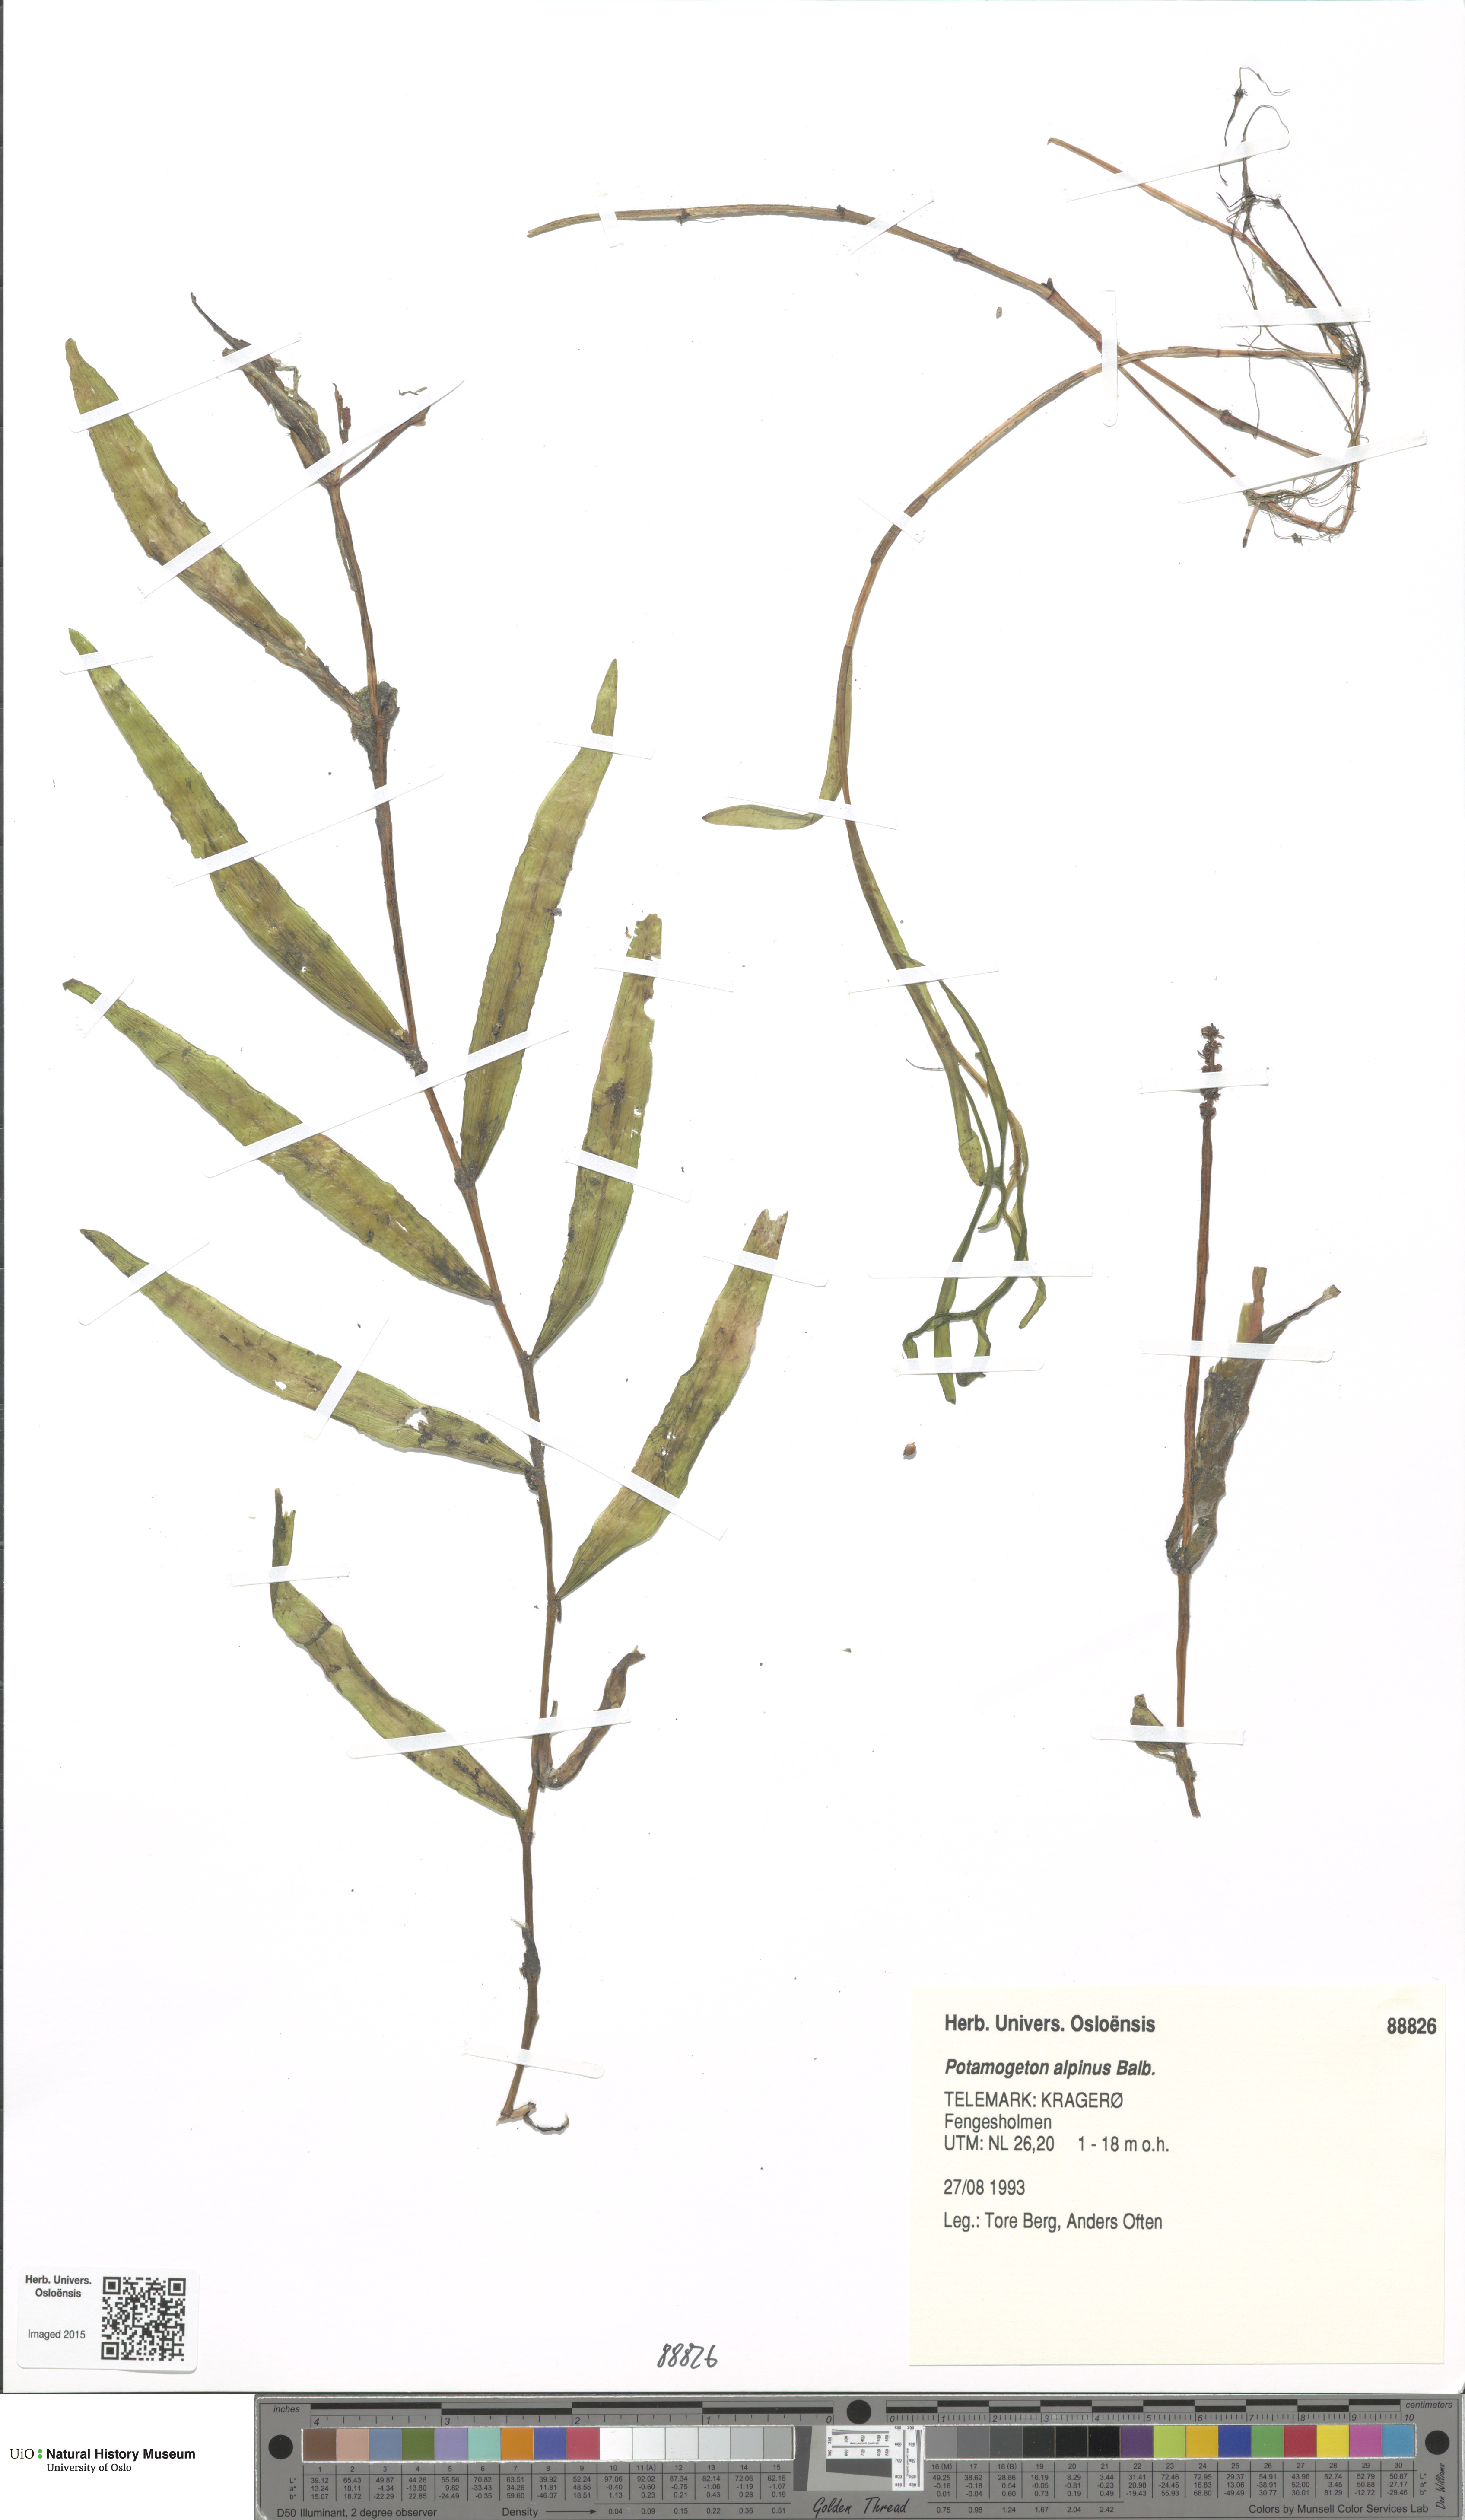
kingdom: Plantae
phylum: Tracheophyta
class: Liliopsida
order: Alismatales
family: Potamogetonaceae
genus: Potamogeton
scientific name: Potamogeton alpinus
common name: Red pondweed
